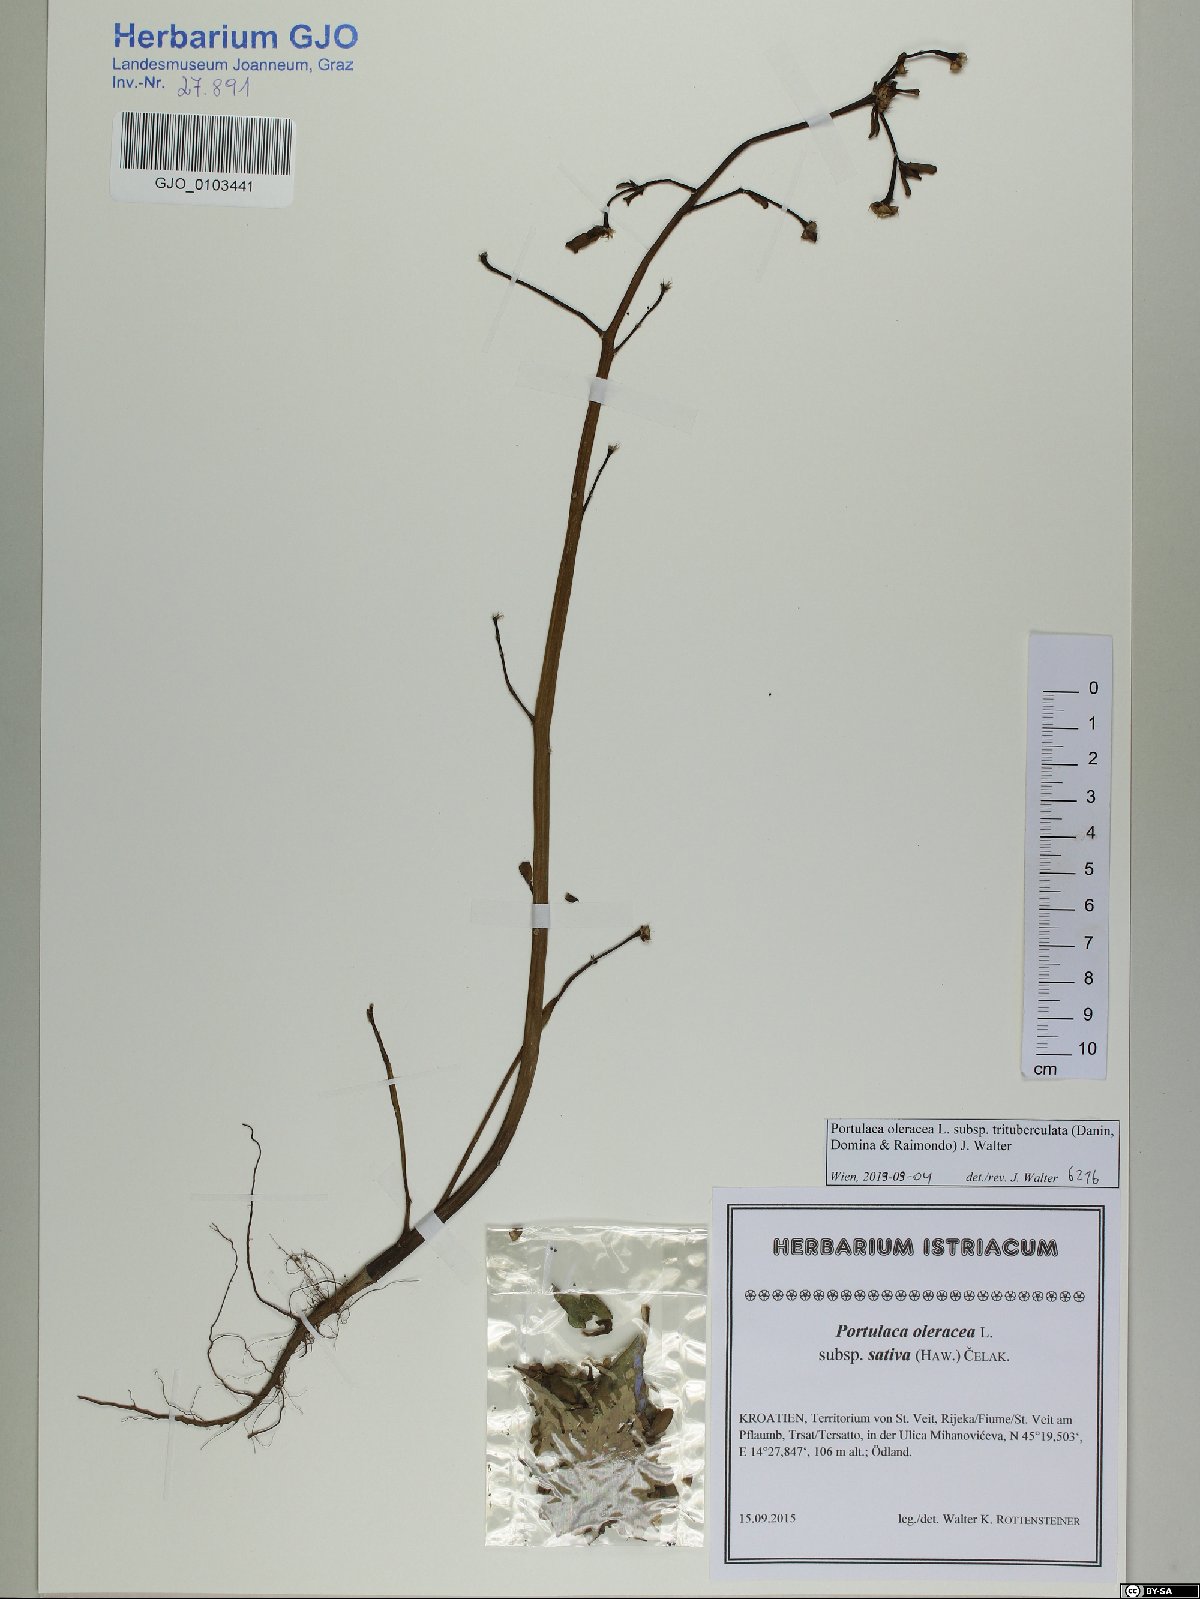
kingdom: Plantae
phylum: Tracheophyta
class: Magnoliopsida
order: Caryophyllales
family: Portulacaceae
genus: Portulaca
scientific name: Portulaca trituberculata
